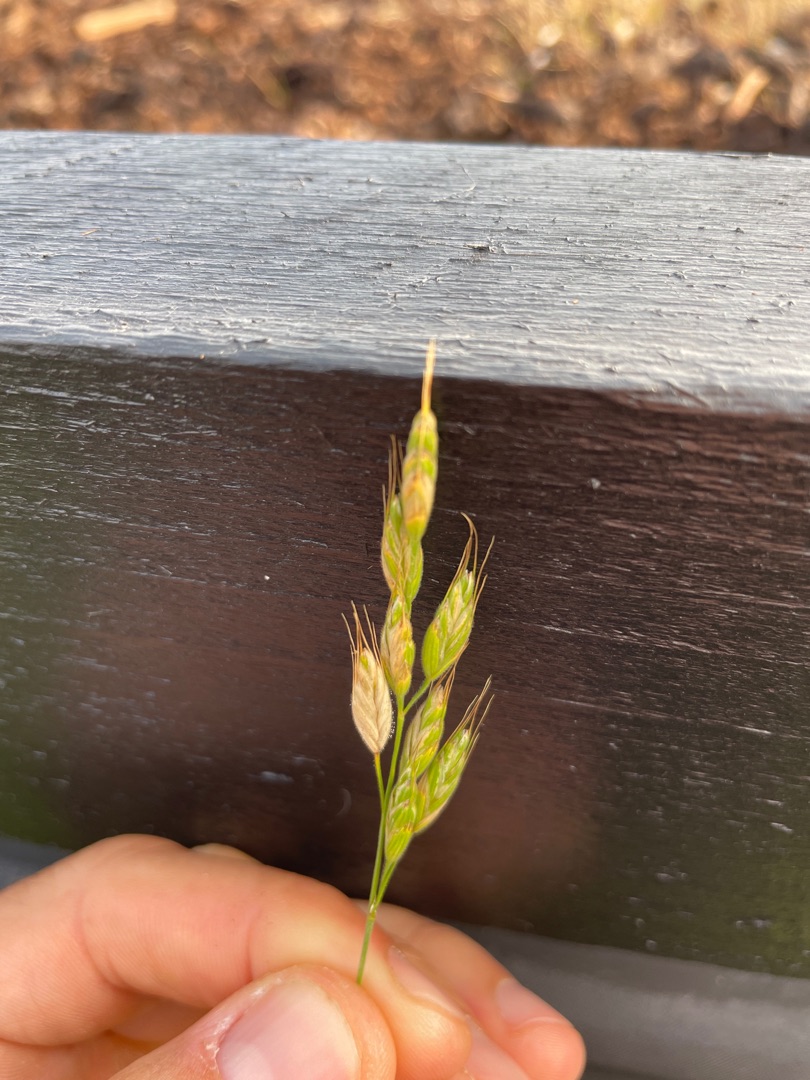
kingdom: Plantae
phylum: Tracheophyta
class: Liliopsida
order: Poales
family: Poaceae
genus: Bromus
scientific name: Bromus hordeaceus
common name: Blød hejre
